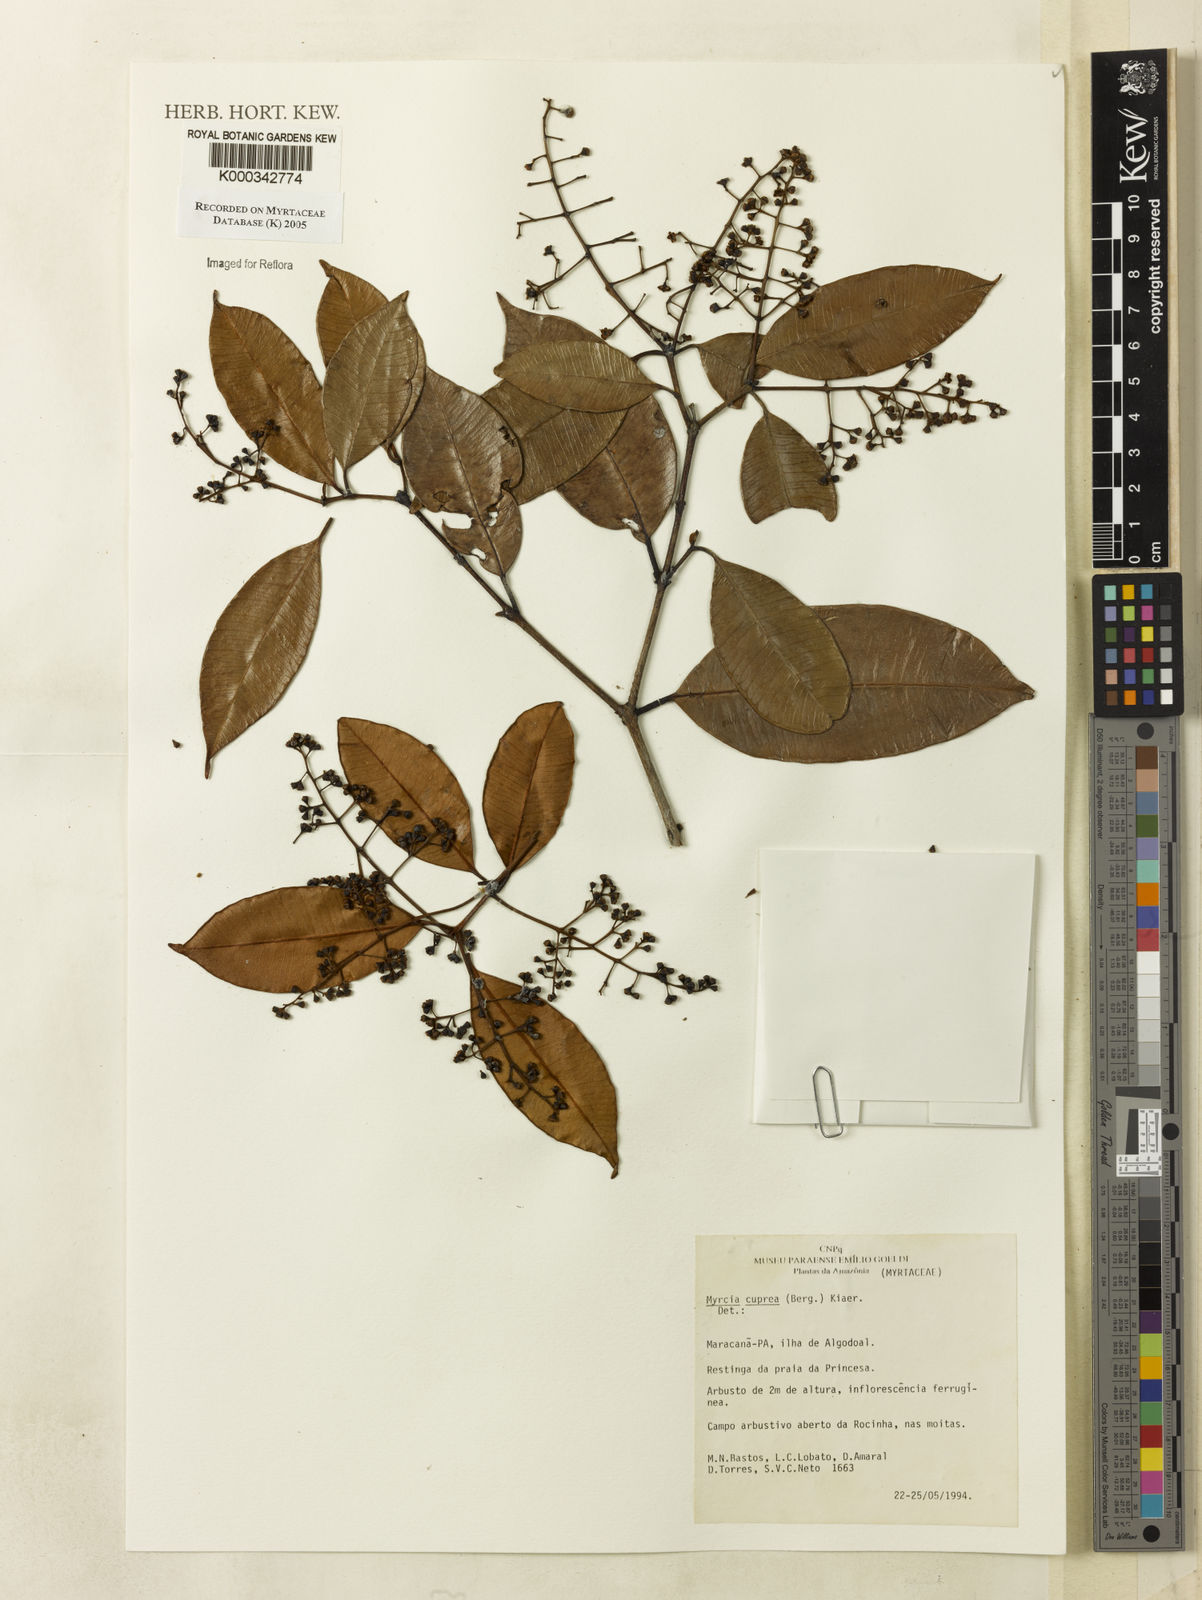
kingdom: Plantae
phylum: Tracheophyta
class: Magnoliopsida
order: Myrtales
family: Myrtaceae
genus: Myrcia
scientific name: Myrcia cuprea
